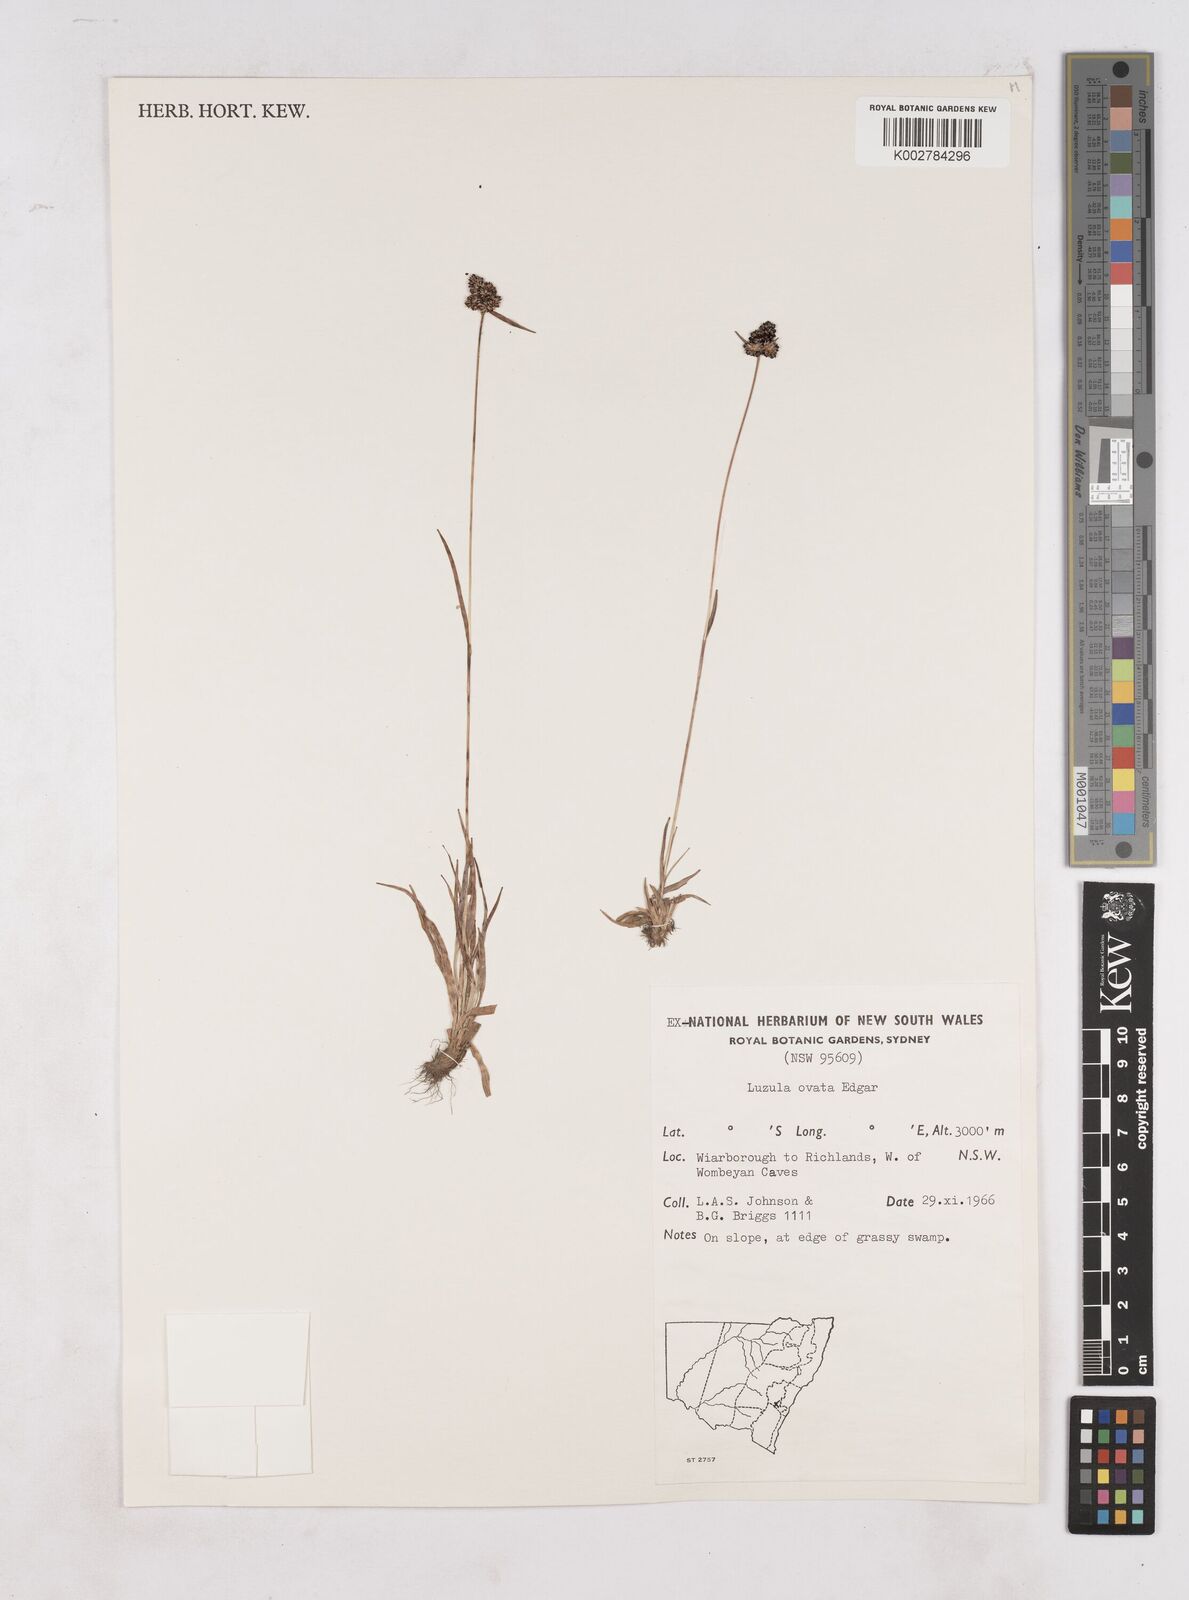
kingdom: Plantae
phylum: Tracheophyta
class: Liliopsida
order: Poales
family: Juncaceae
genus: Luzula
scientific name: Luzula ovata
